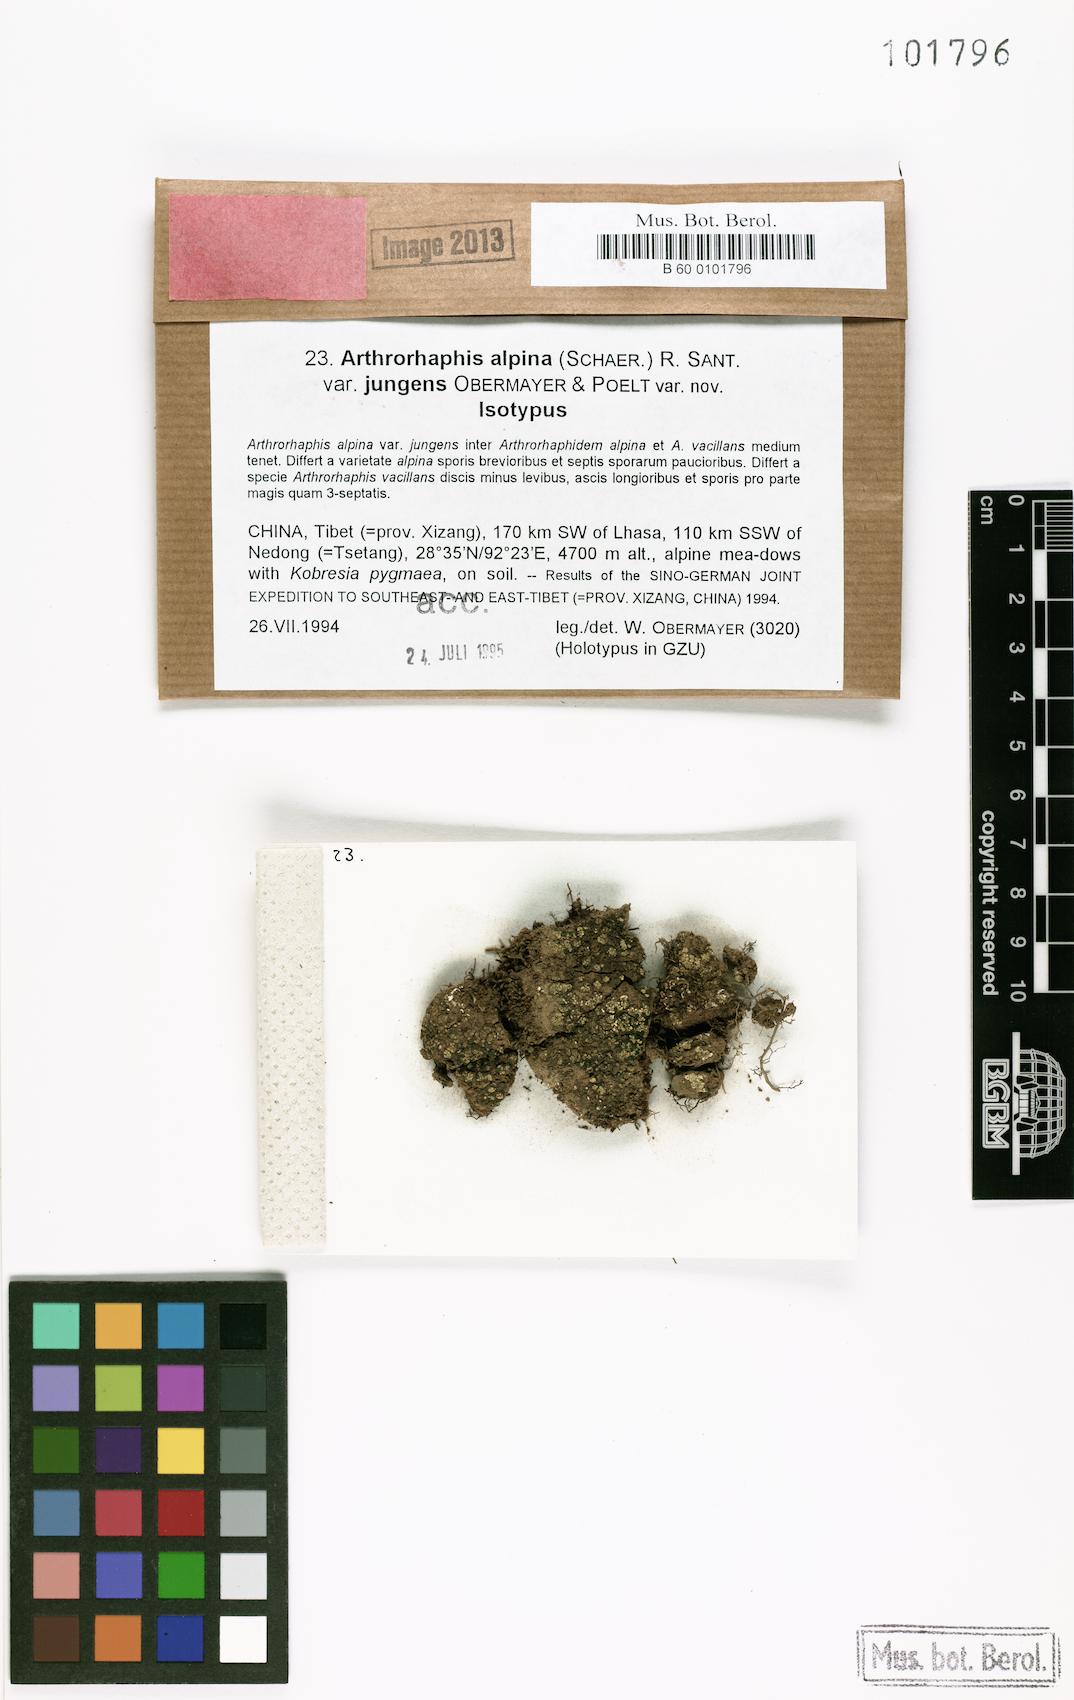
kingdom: Fungi
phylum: Ascomycota
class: Lecanoromycetes
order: Umbilicariales
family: Arthrorhaphidaceae
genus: Arthrorhaphis
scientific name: Arthrorhaphis alpina
